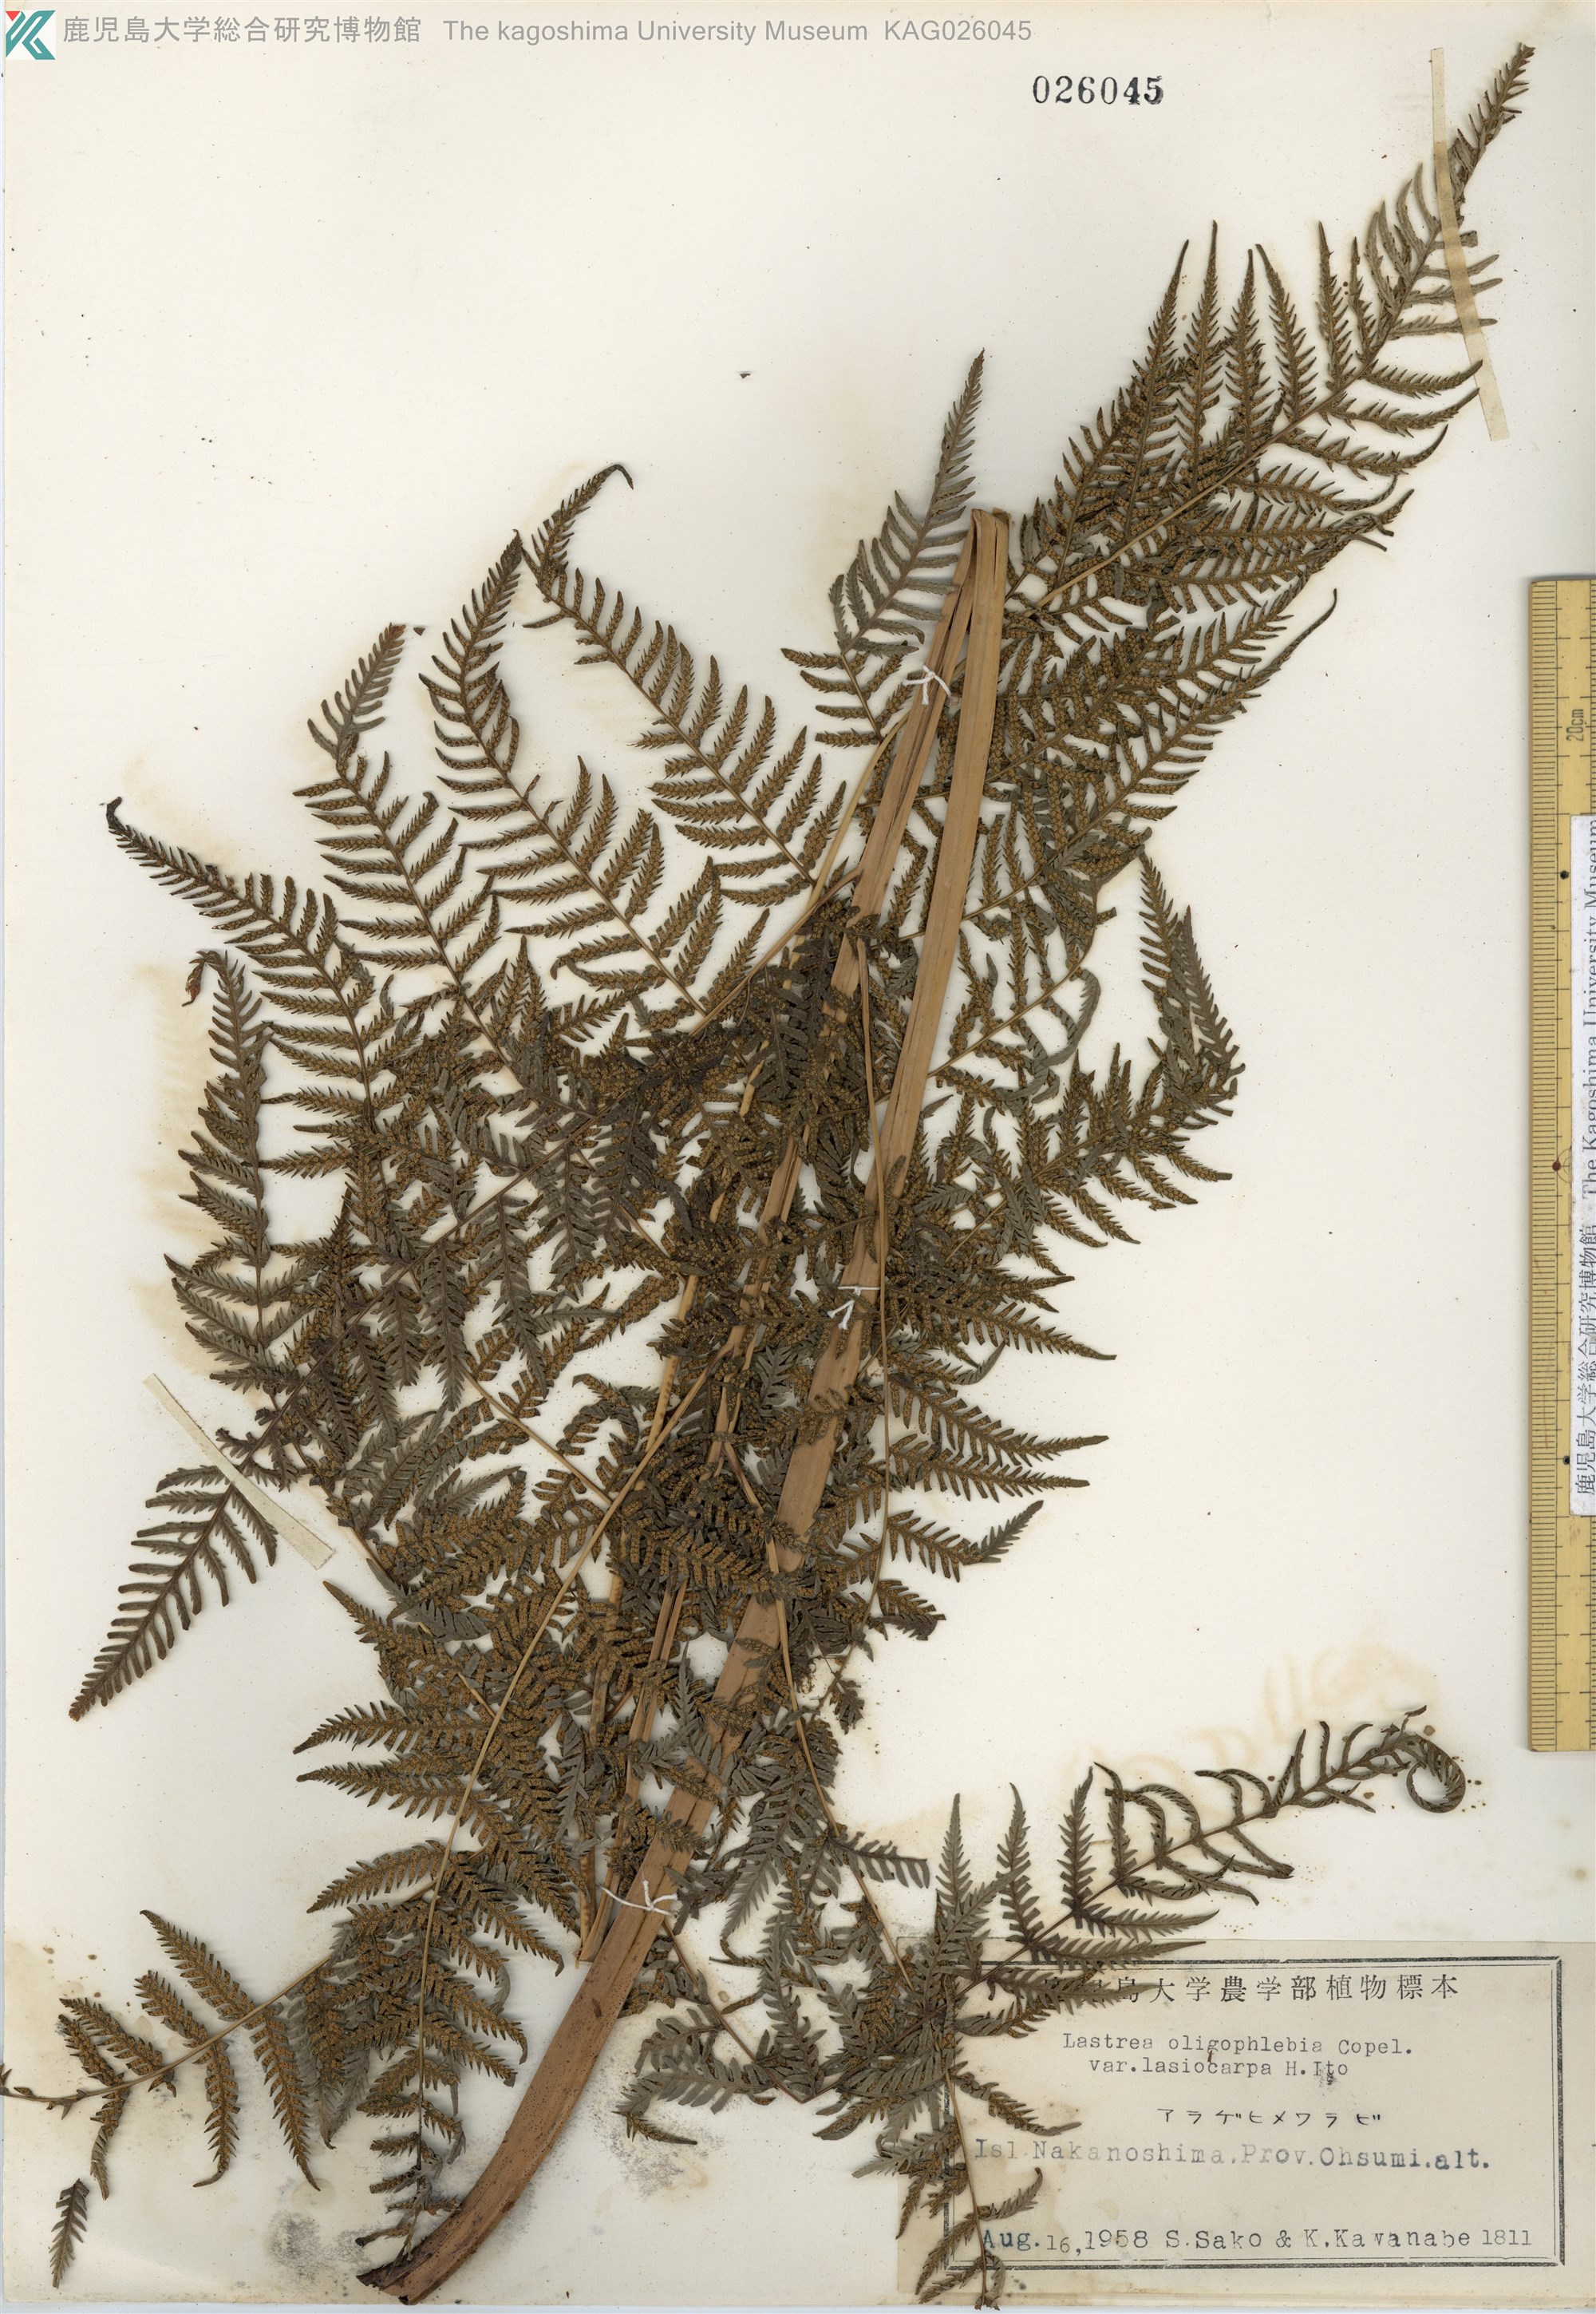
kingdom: Plantae
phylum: Tracheophyta
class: Polypodiopsida
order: Polypodiales
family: Thelypteridaceae
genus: Macrothelypteris
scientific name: Macrothelypteris oligophlebia
